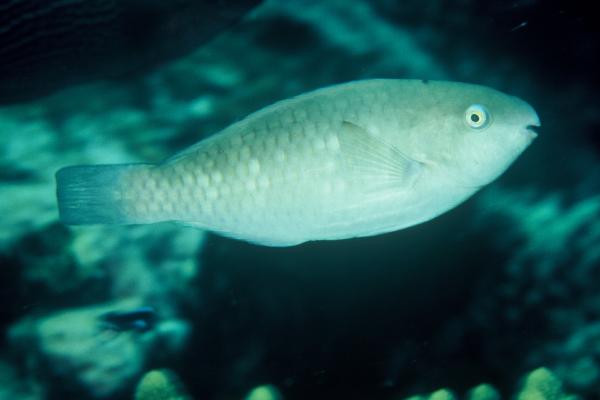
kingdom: Animalia
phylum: Chordata
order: Perciformes
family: Scaridae
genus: Scarus
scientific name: Scarus quoyi
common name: Quoy's parrotfish
